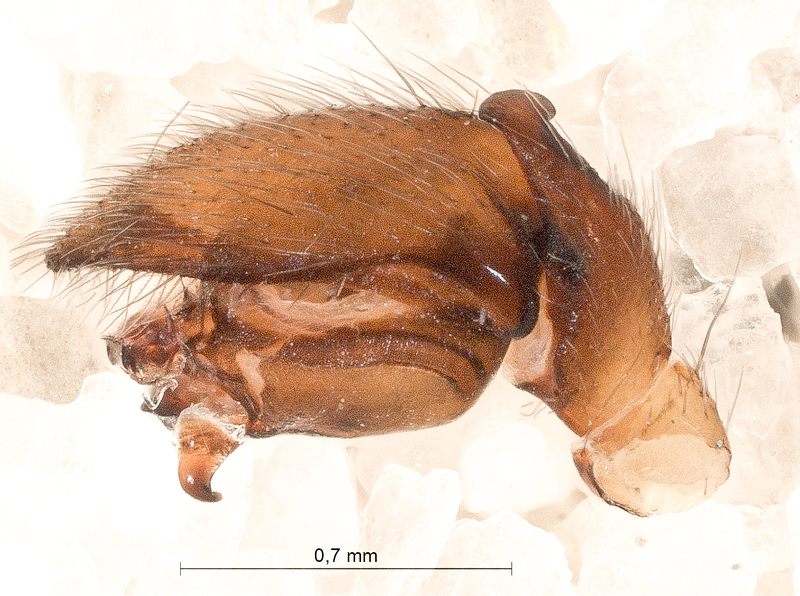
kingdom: Animalia
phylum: Arthropoda
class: Arachnida
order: Araneae
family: Gnaphosidae
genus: Haplodrassus
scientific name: Haplodrassus signifer
